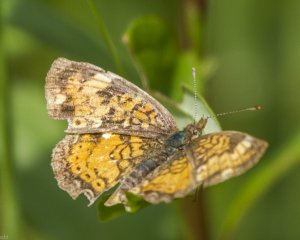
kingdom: Animalia
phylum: Arthropoda
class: Insecta
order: Lepidoptera
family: Nymphalidae
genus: Phyciodes
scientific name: Phyciodes tharos
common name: Northern Crescent
